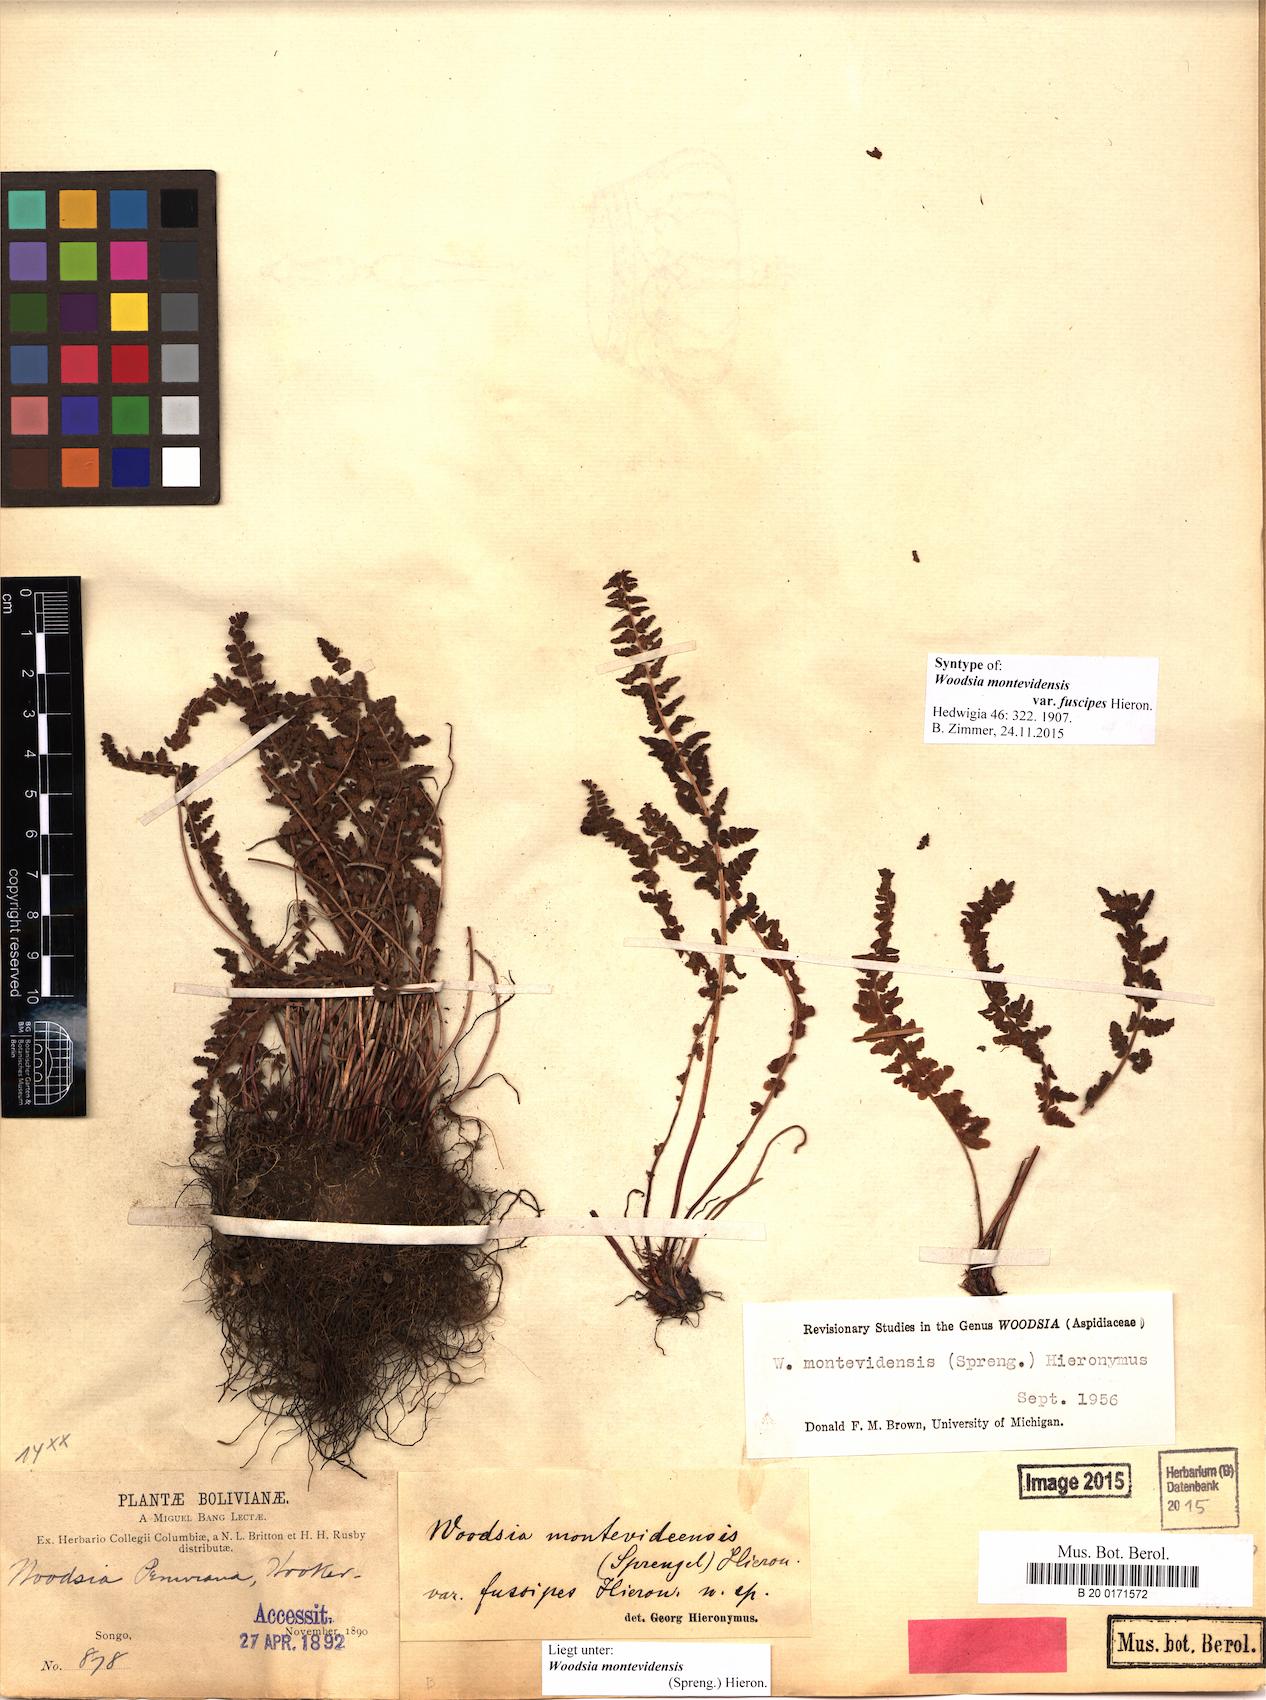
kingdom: Plantae
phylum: Tracheophyta
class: Polypodiopsida
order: Polypodiales
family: Woodsiaceae
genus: Physematium
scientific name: Physematium montevidense
